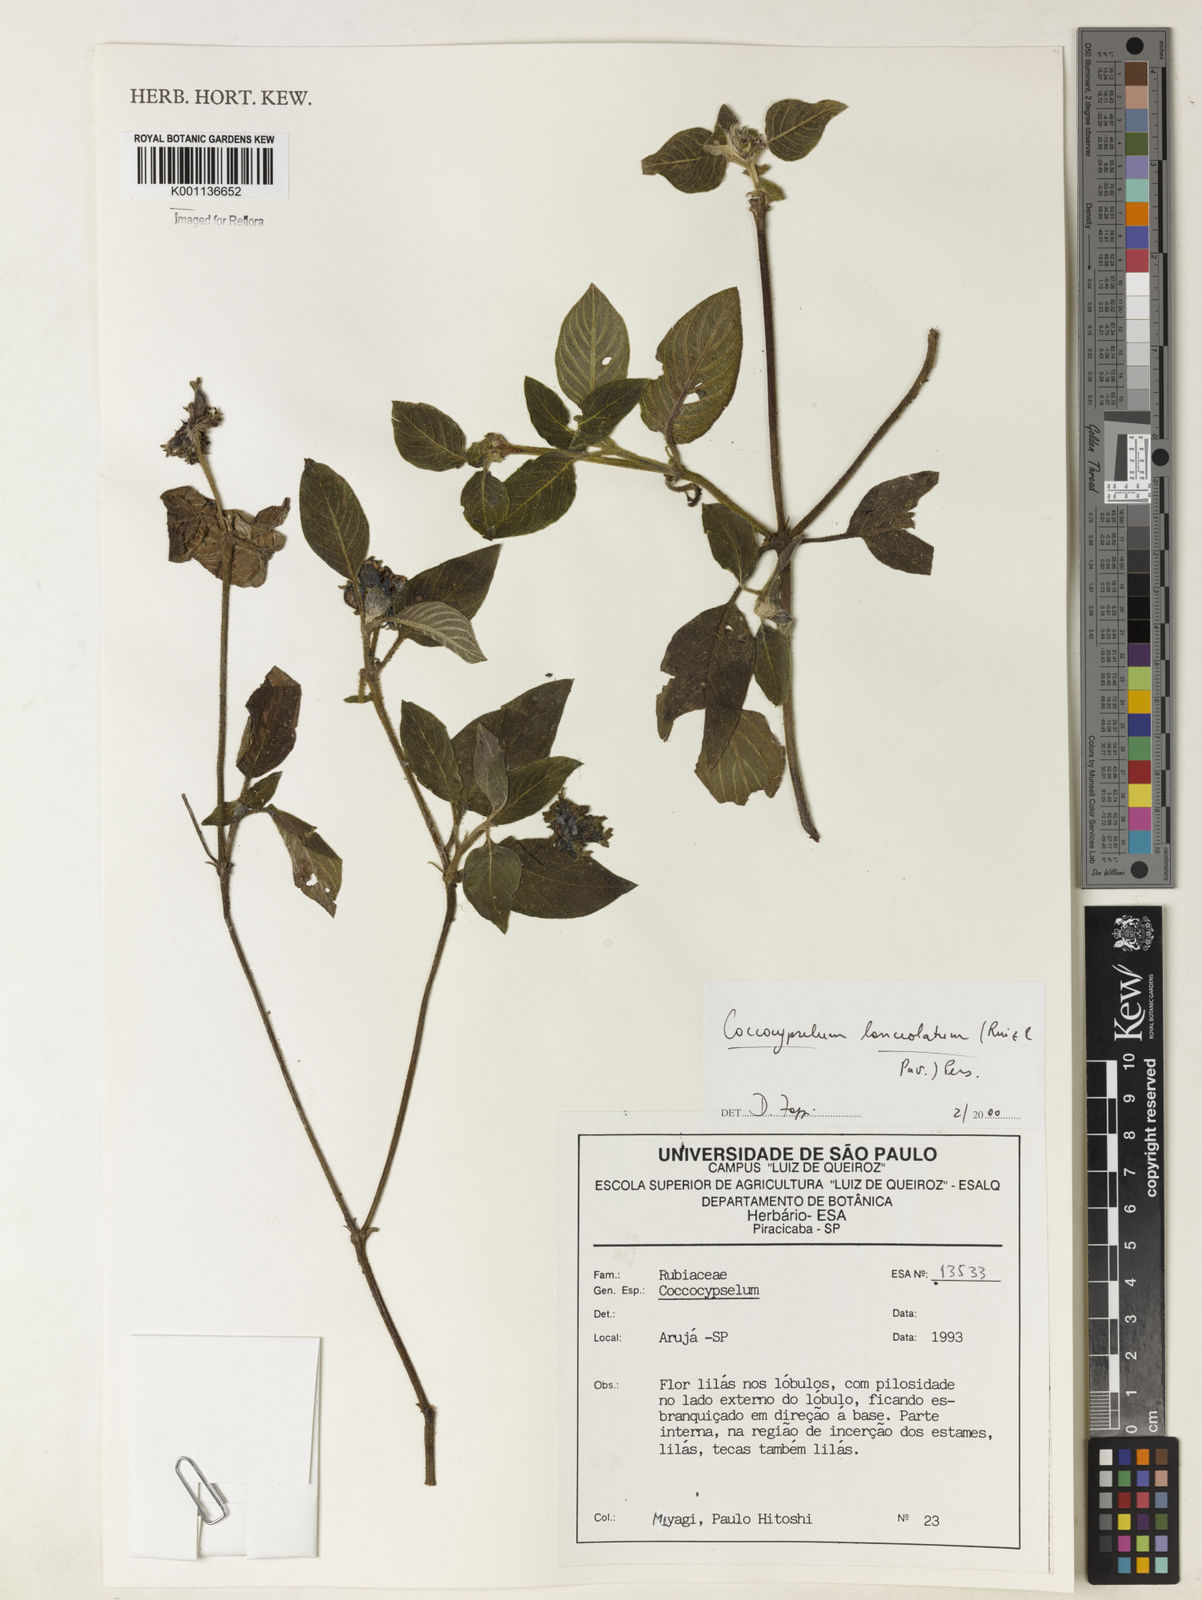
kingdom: Plantae
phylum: Tracheophyta
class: Magnoliopsida
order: Gentianales
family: Rubiaceae
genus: Coccocypselum
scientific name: Coccocypselum lanceolatum
